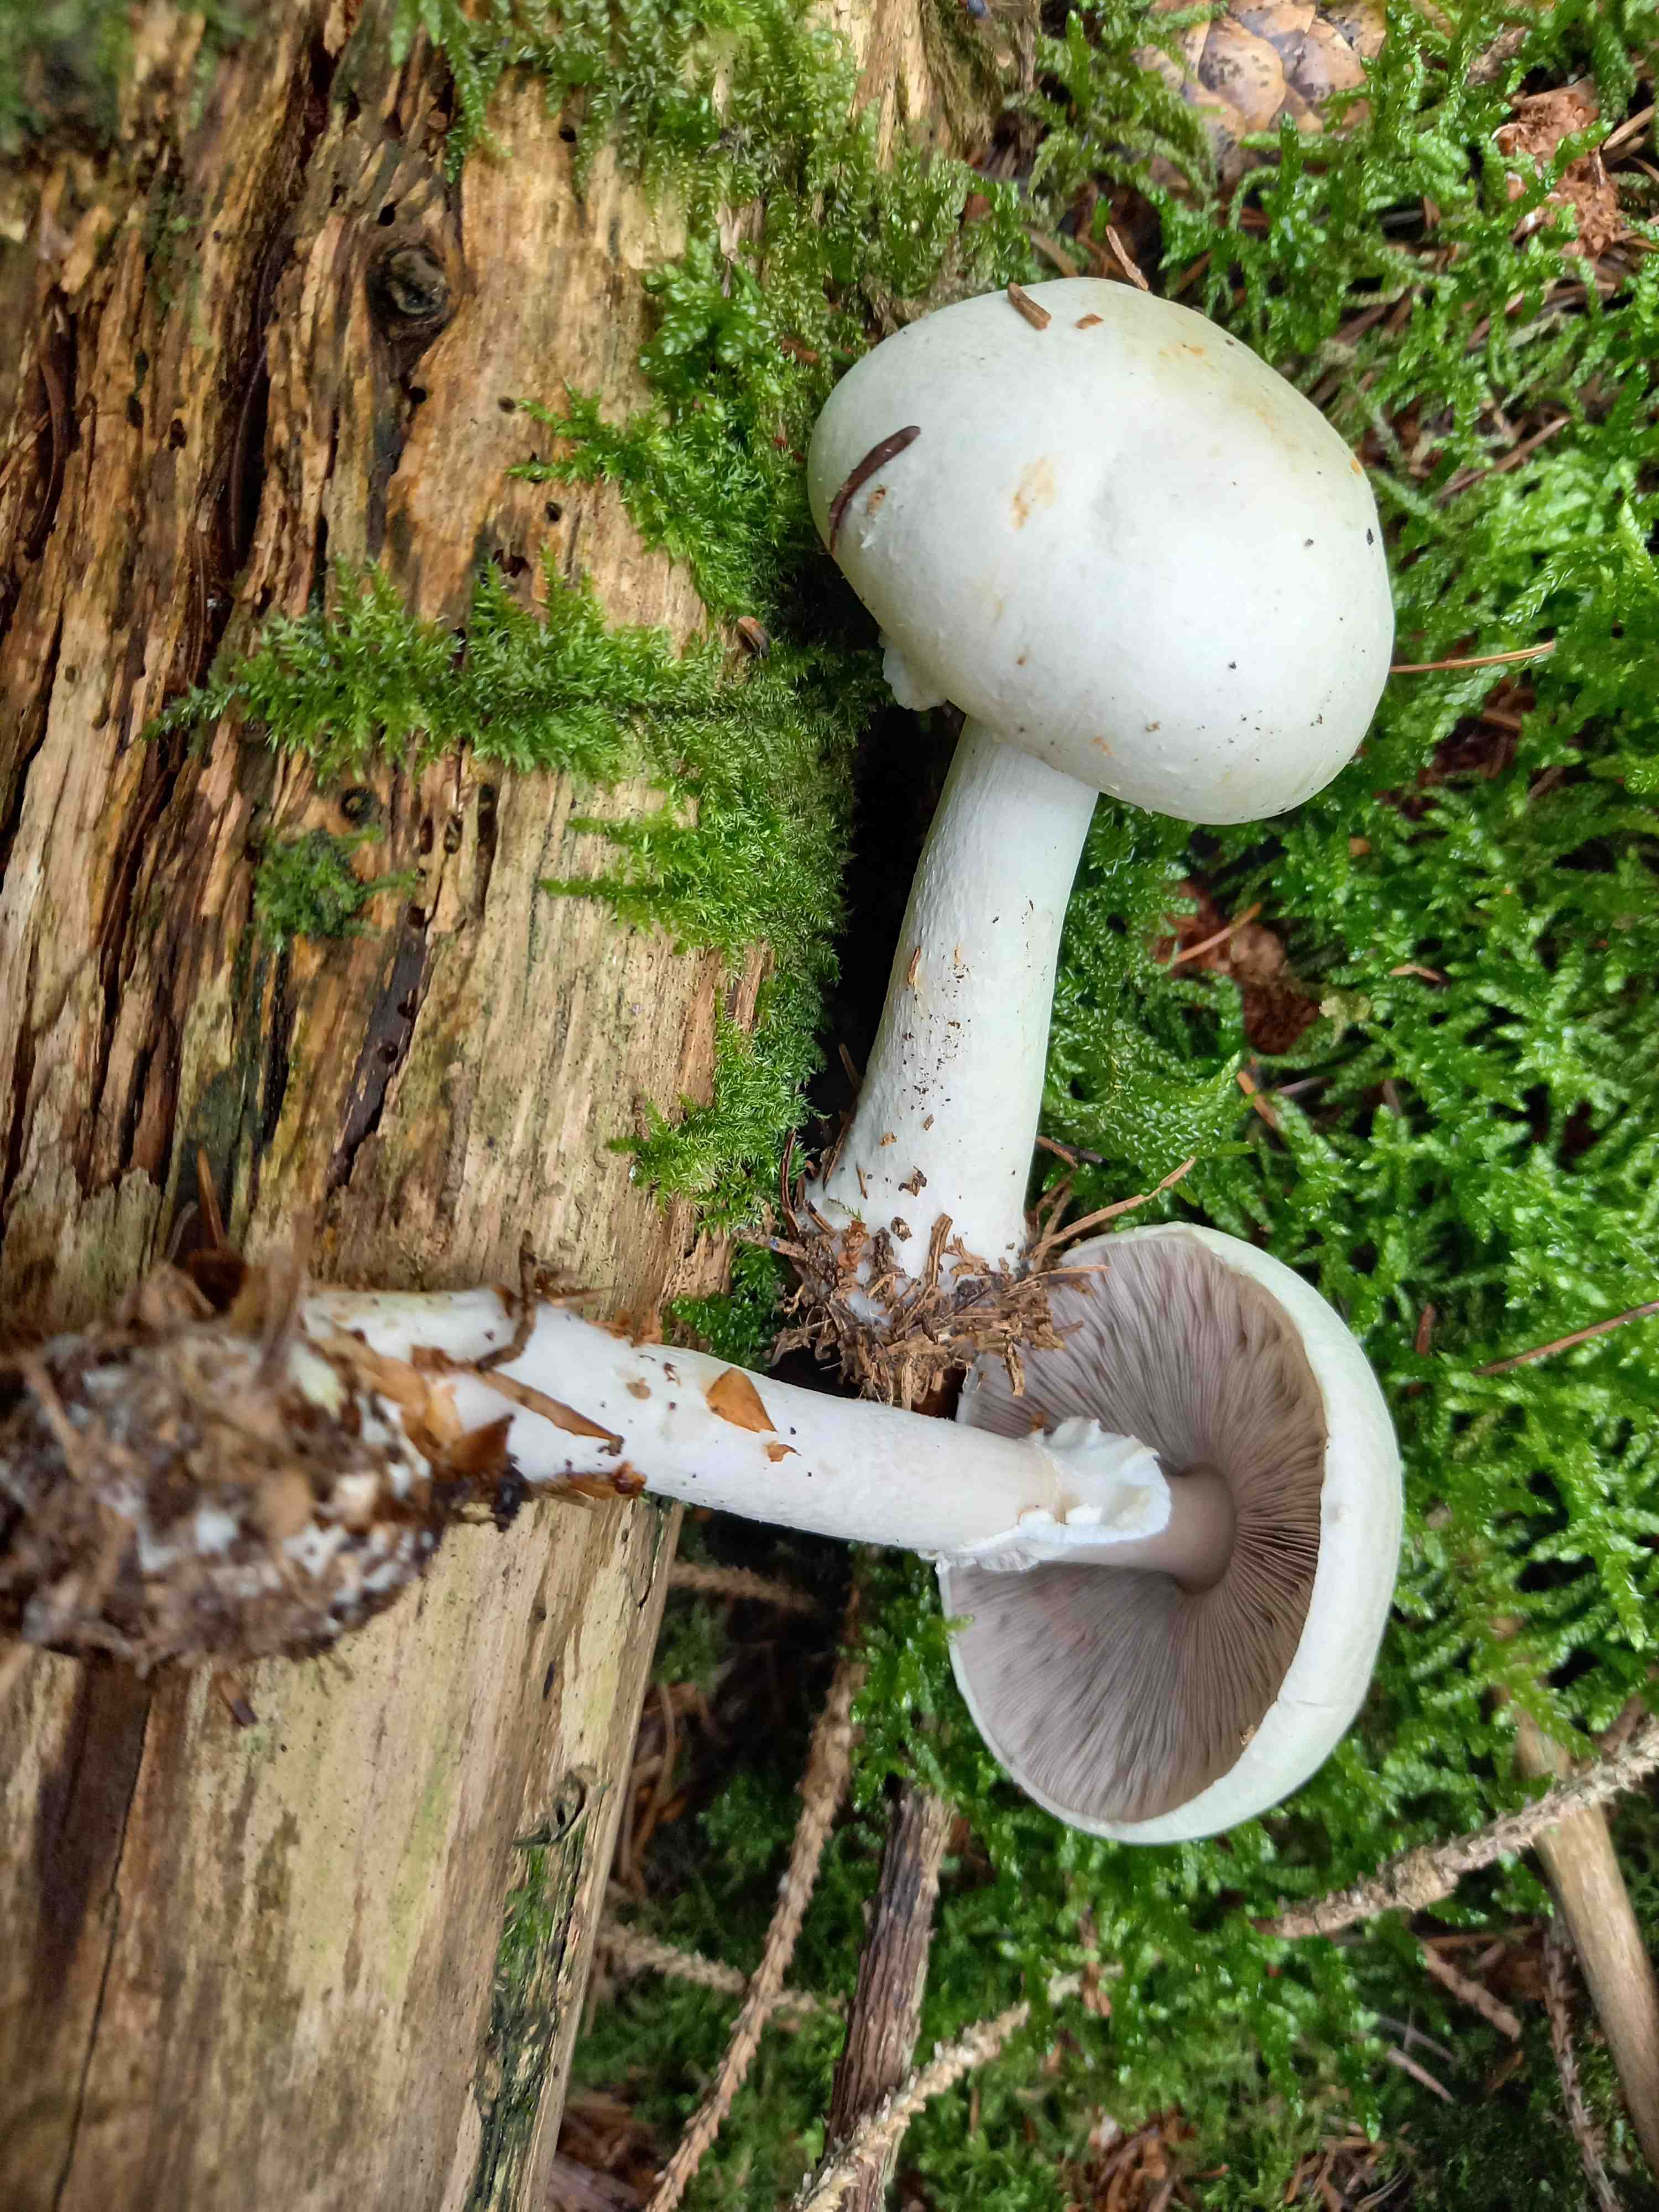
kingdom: Fungi
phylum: Basidiomycota
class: Agaricomycetes
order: Agaricales
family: Agaricaceae
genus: Agaricus
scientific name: Agaricus sylvicola
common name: gulhvid champignon
